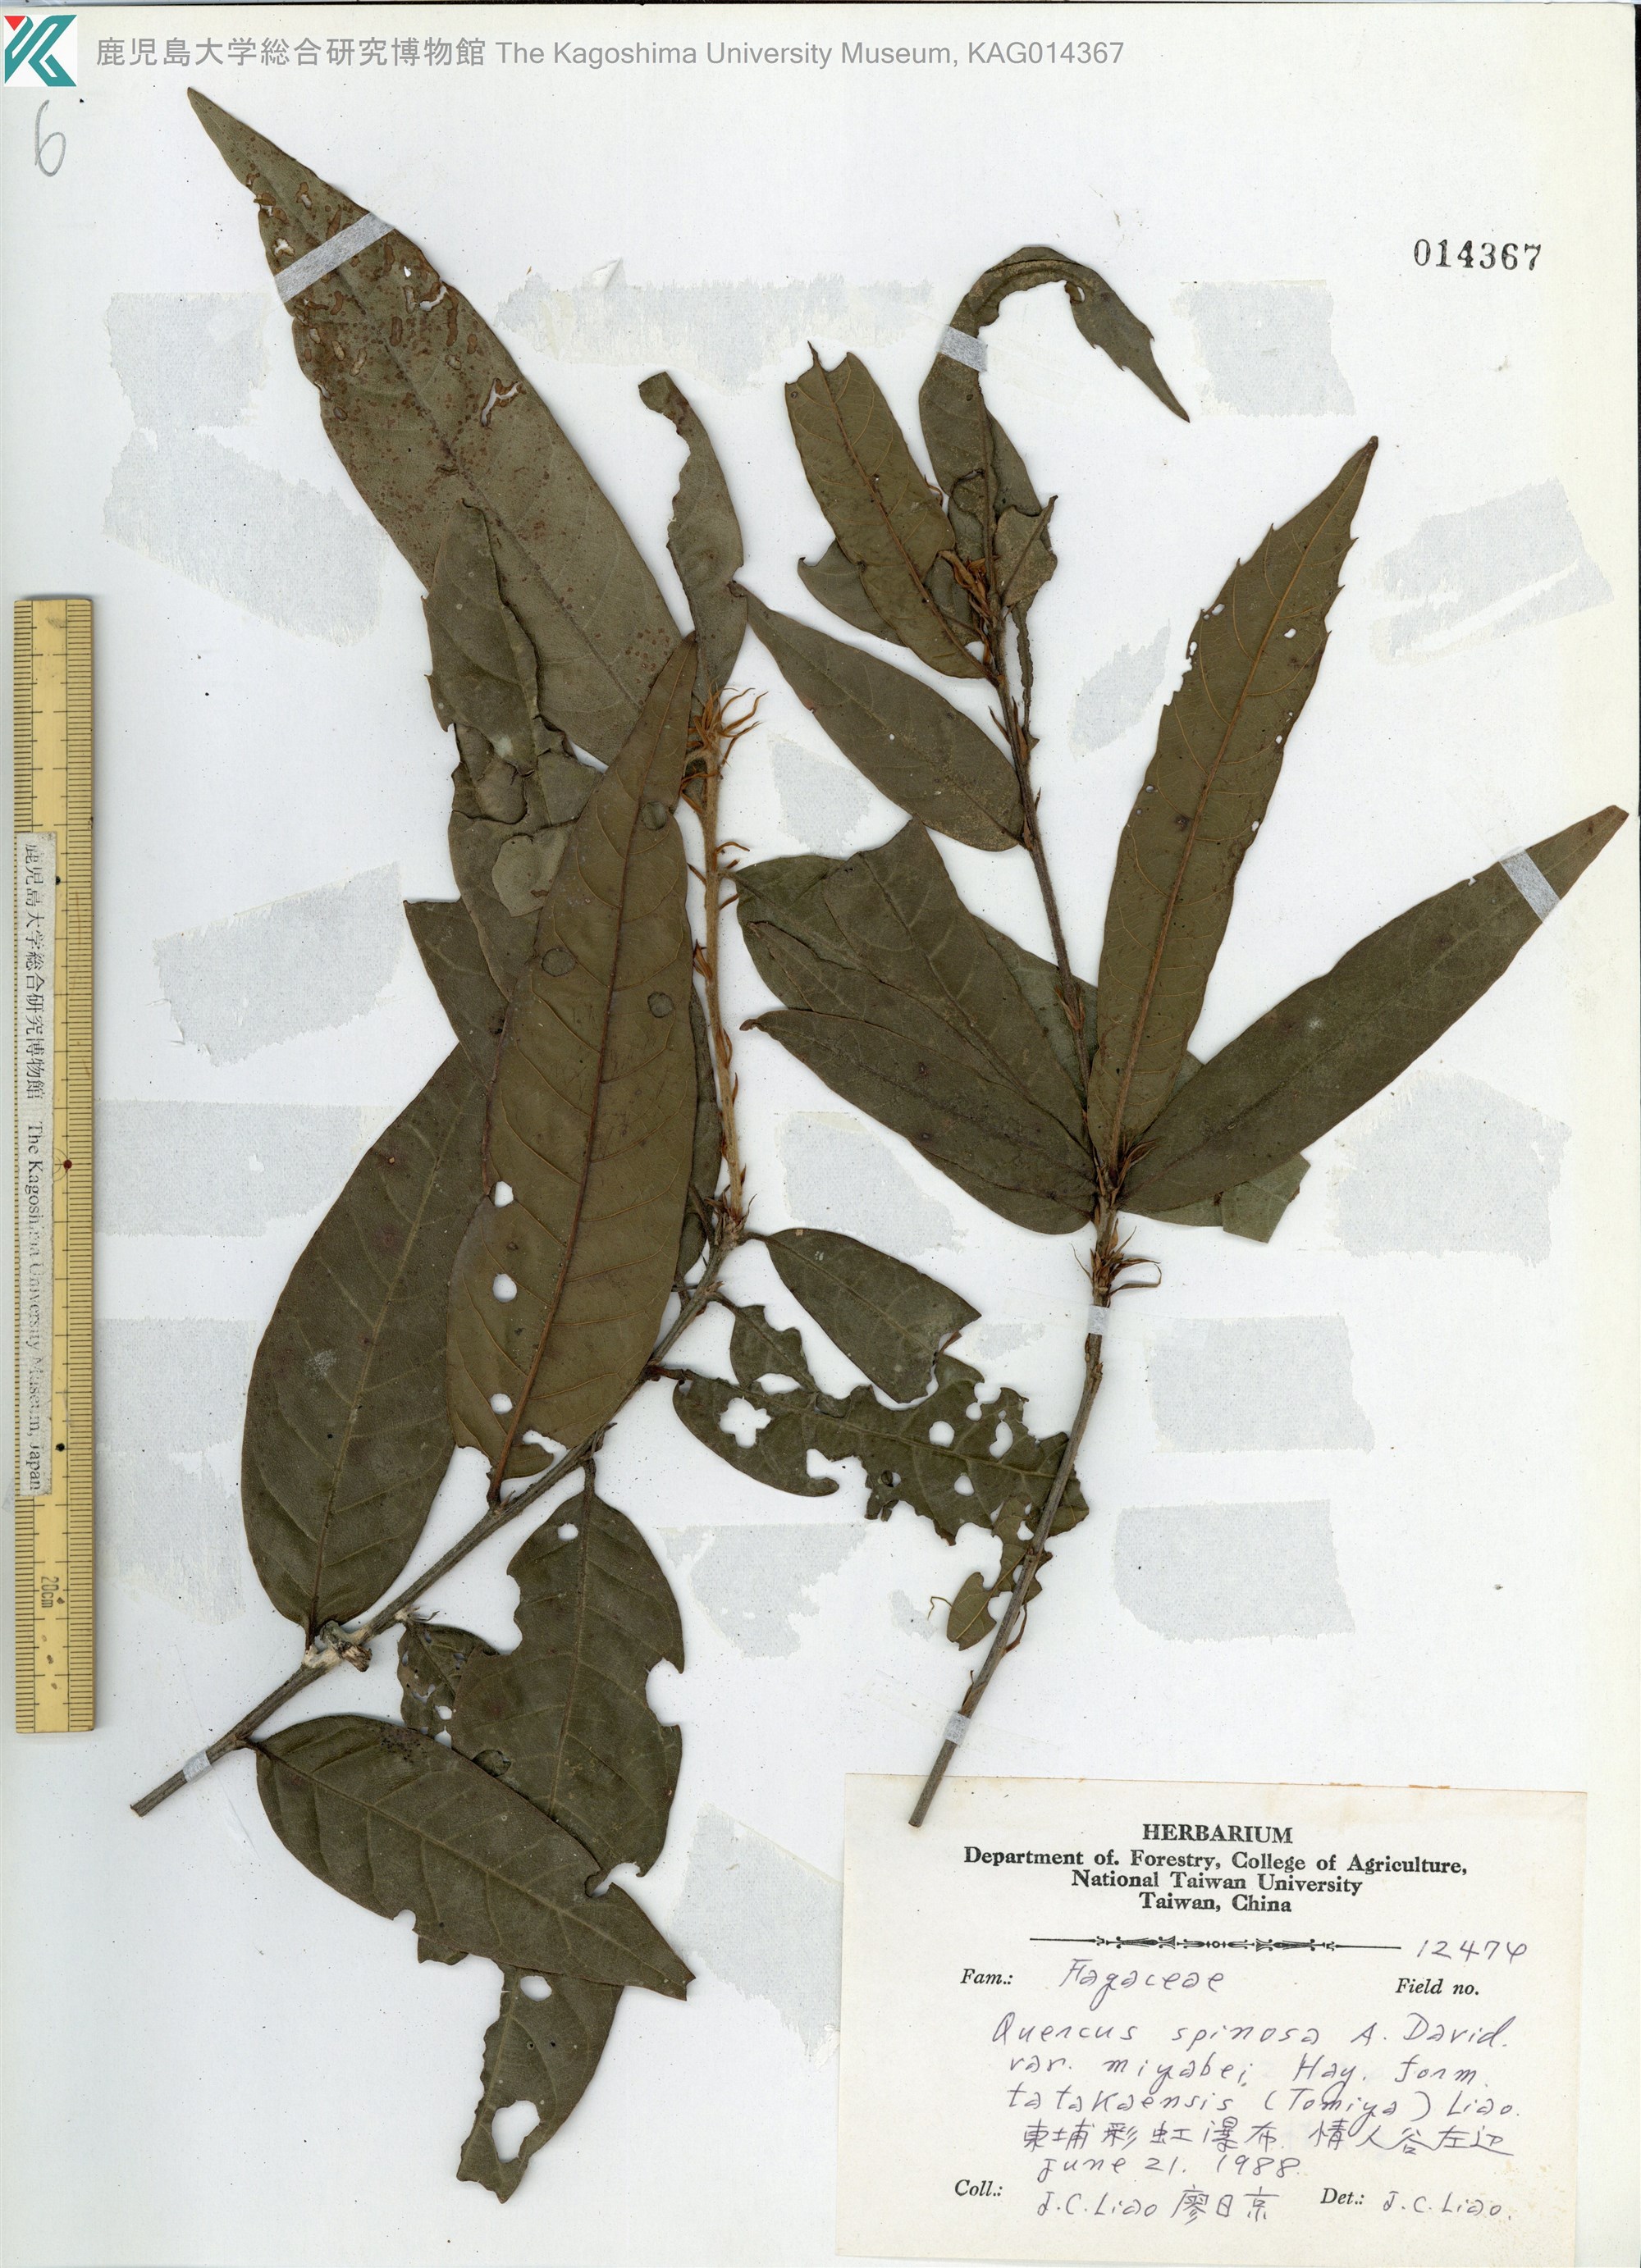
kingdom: Plantae
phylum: Tracheophyta
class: Magnoliopsida
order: Fagales
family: Fagaceae
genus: Quercus
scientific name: Quercus spinosa
